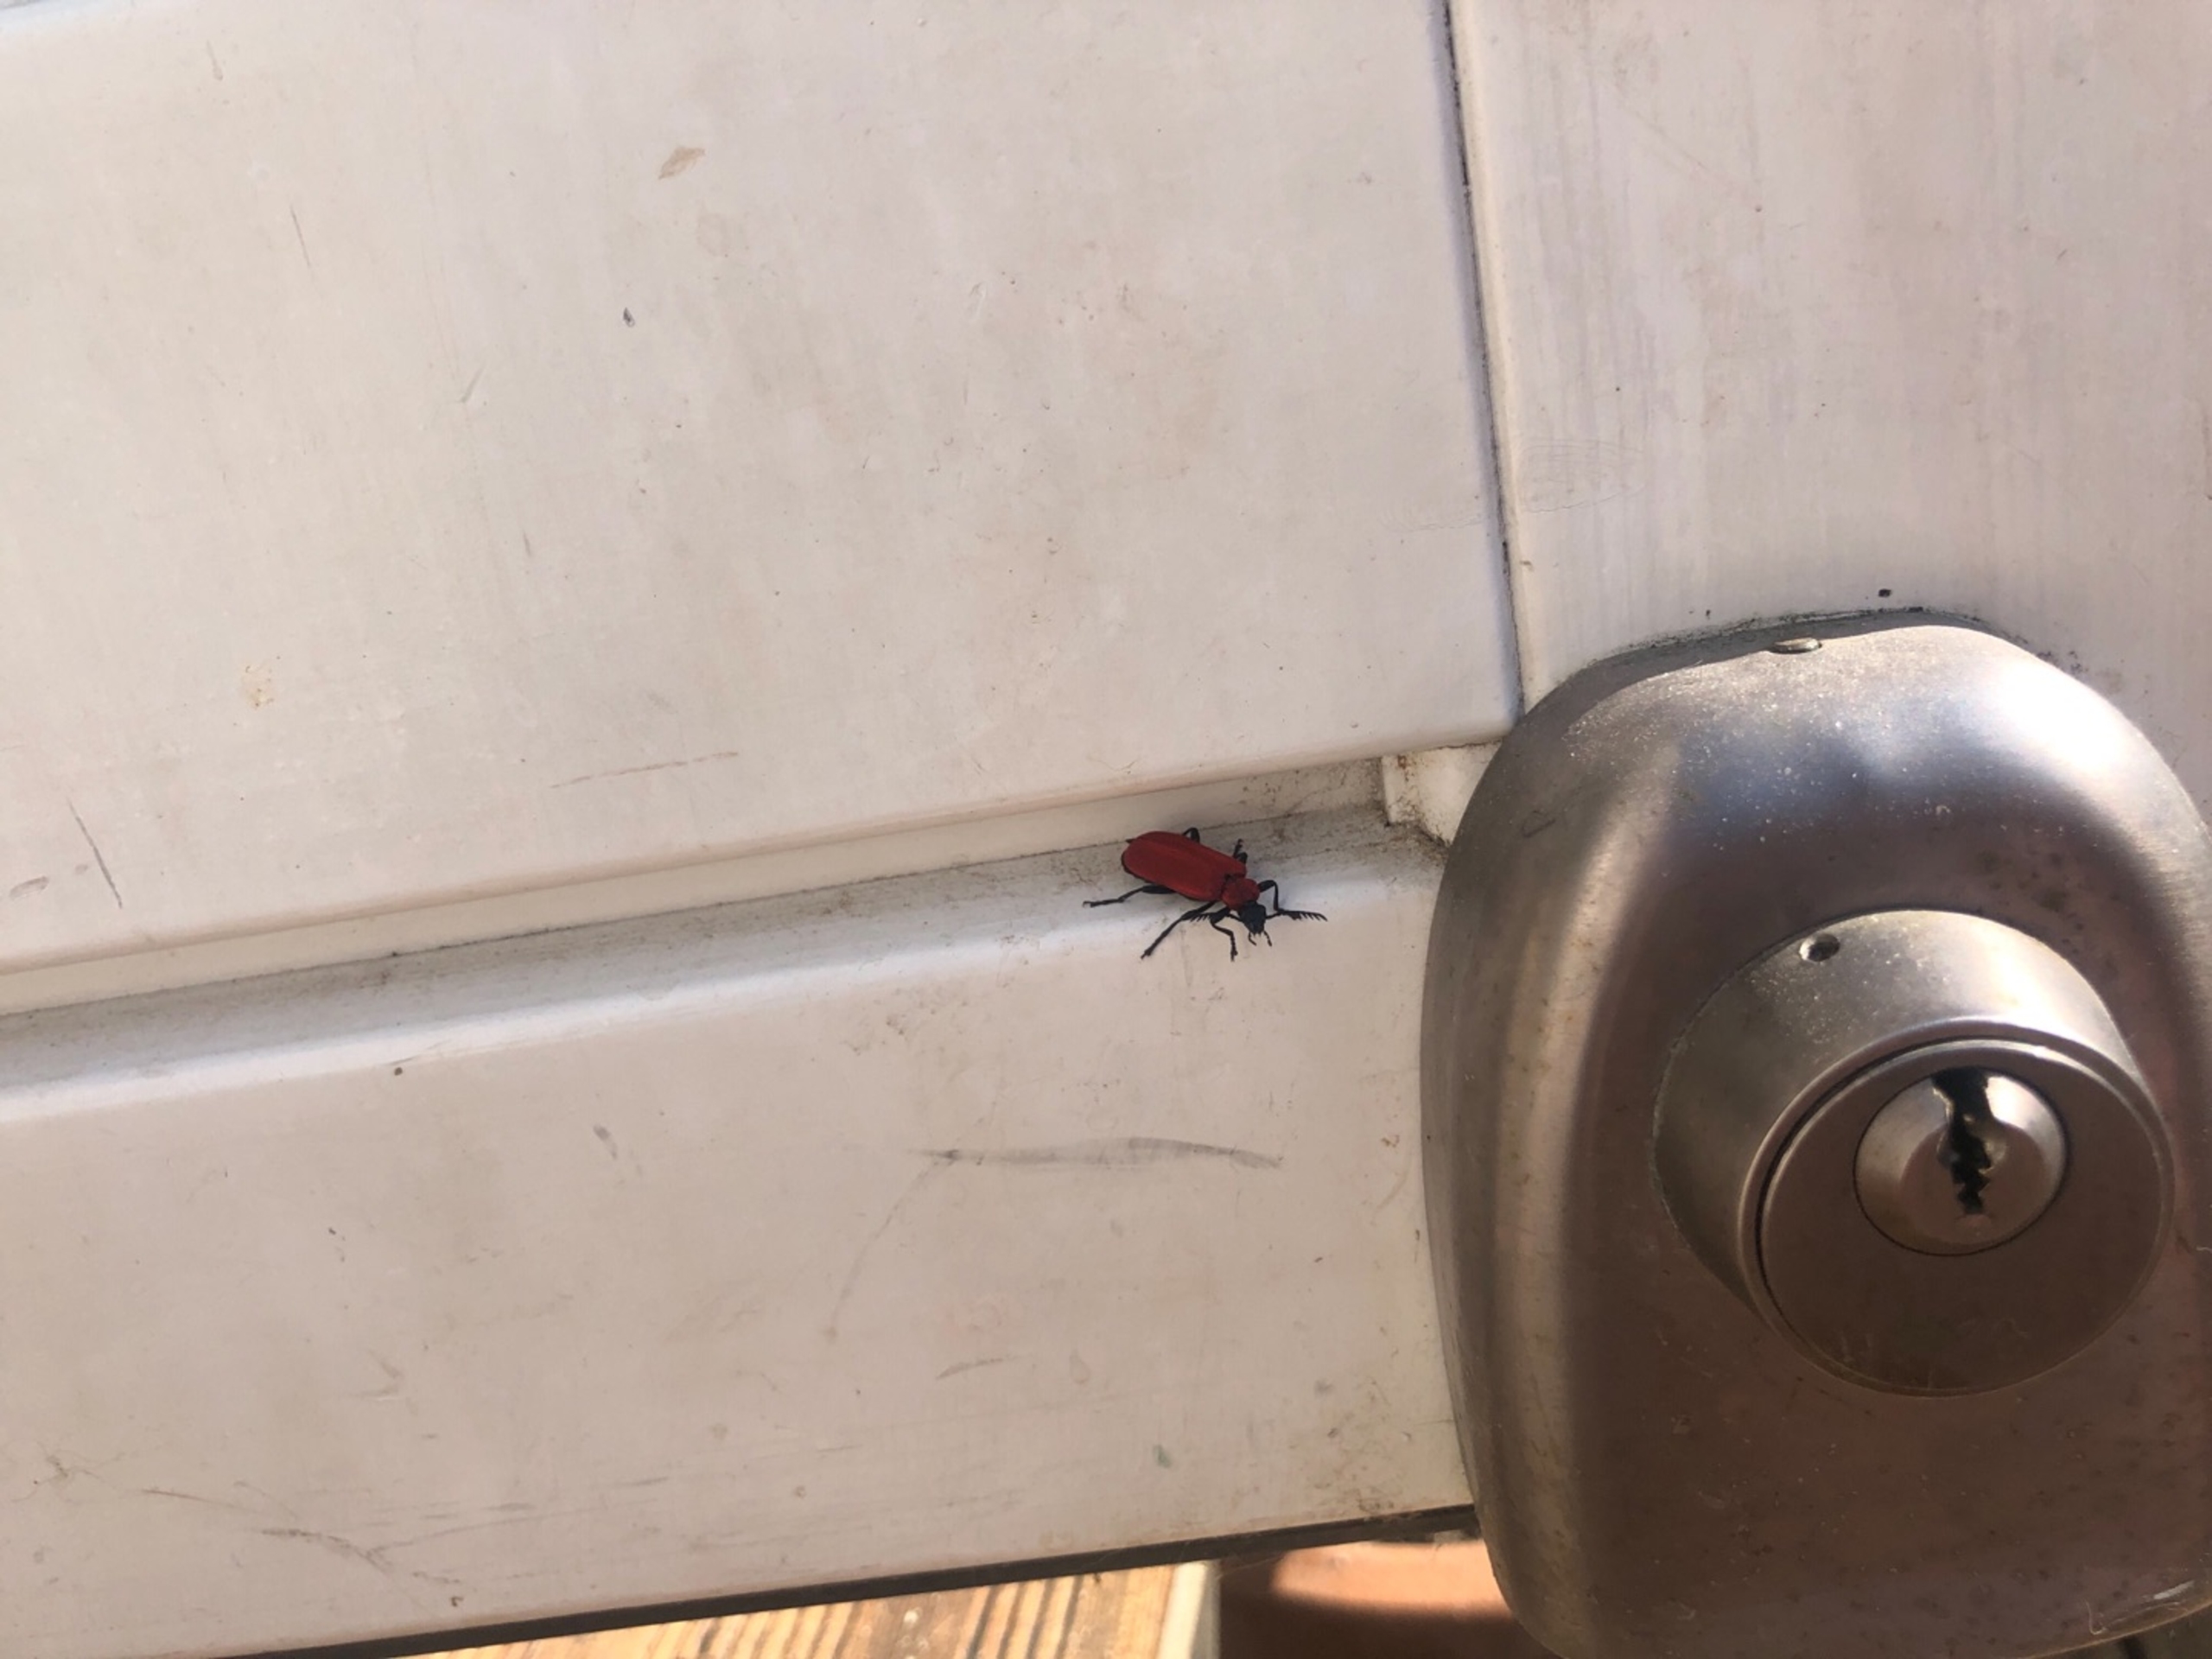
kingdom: Animalia
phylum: Arthropoda
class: Insecta
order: Coleoptera
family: Pyrochroidae
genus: Pyrochroa
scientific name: Pyrochroa coccinea
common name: Sorthovedet kardinalbille
